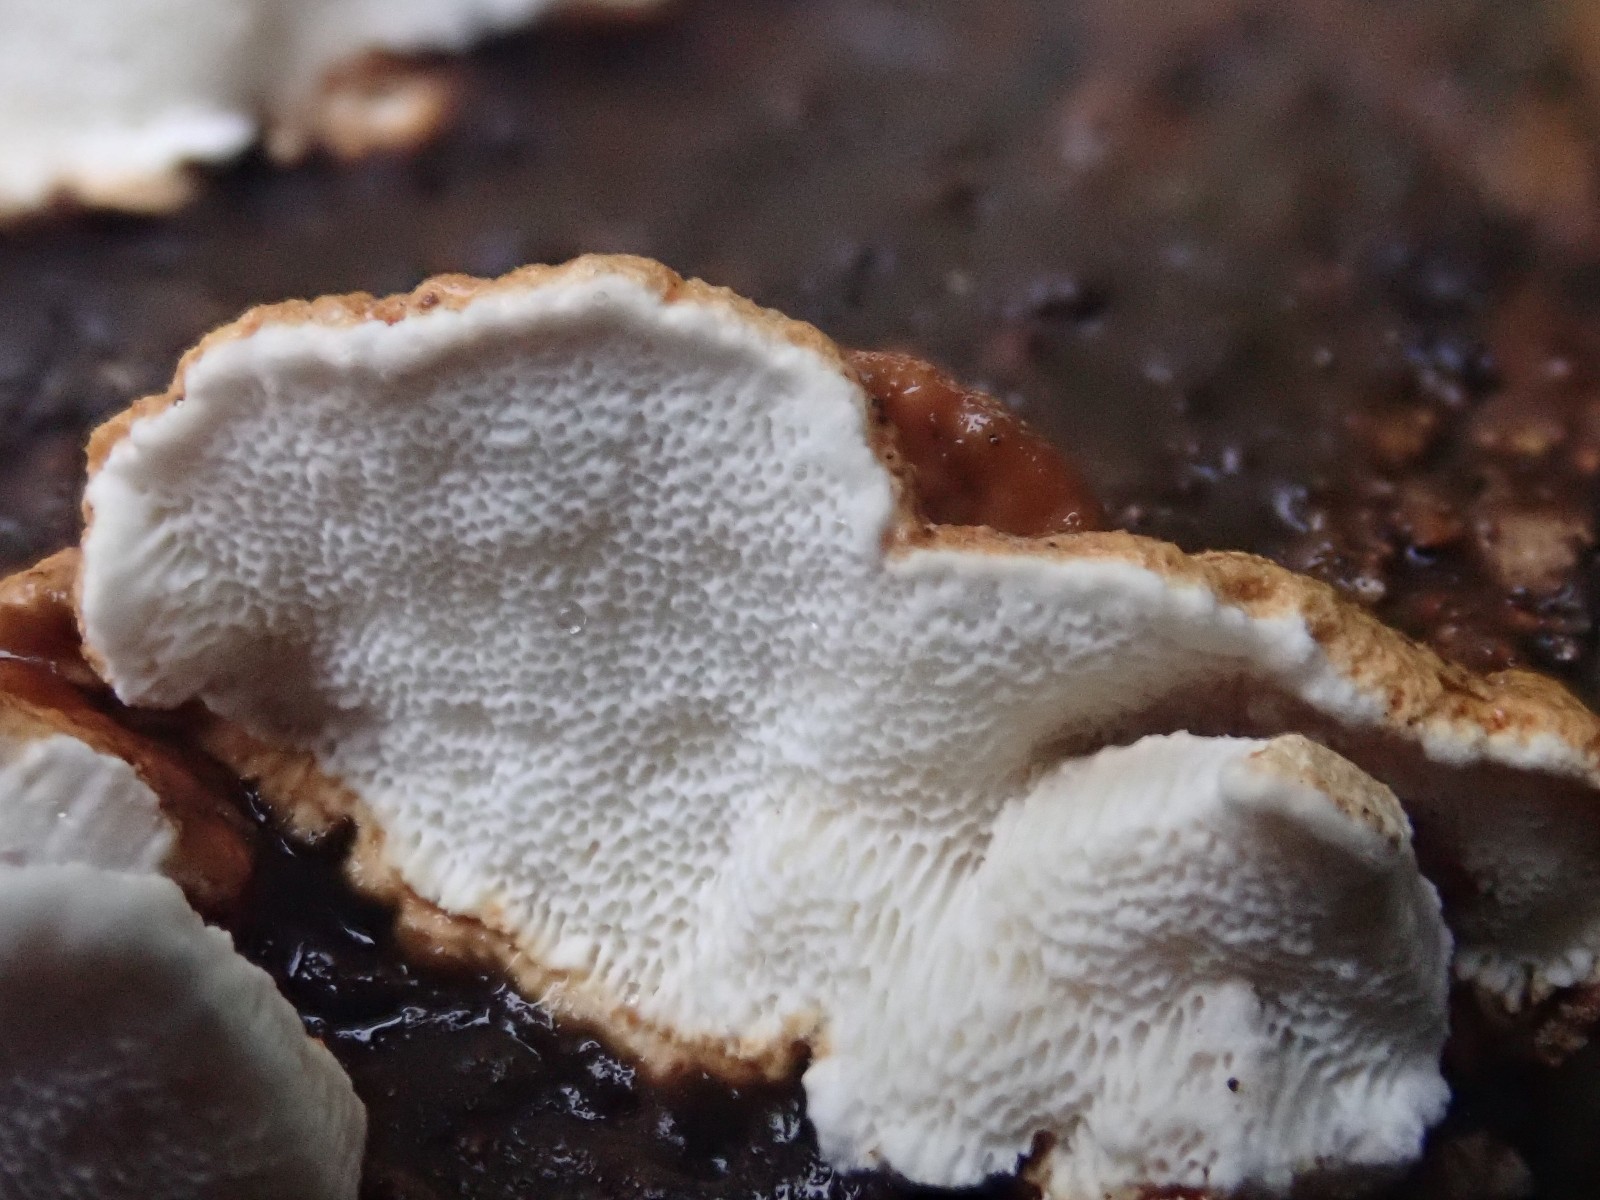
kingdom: Fungi
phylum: Basidiomycota
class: Agaricomycetes
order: Polyporales
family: Fomitopsidaceae
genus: Neoantrodia
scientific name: Neoantrodia serialis
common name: række-sejporesvamp
